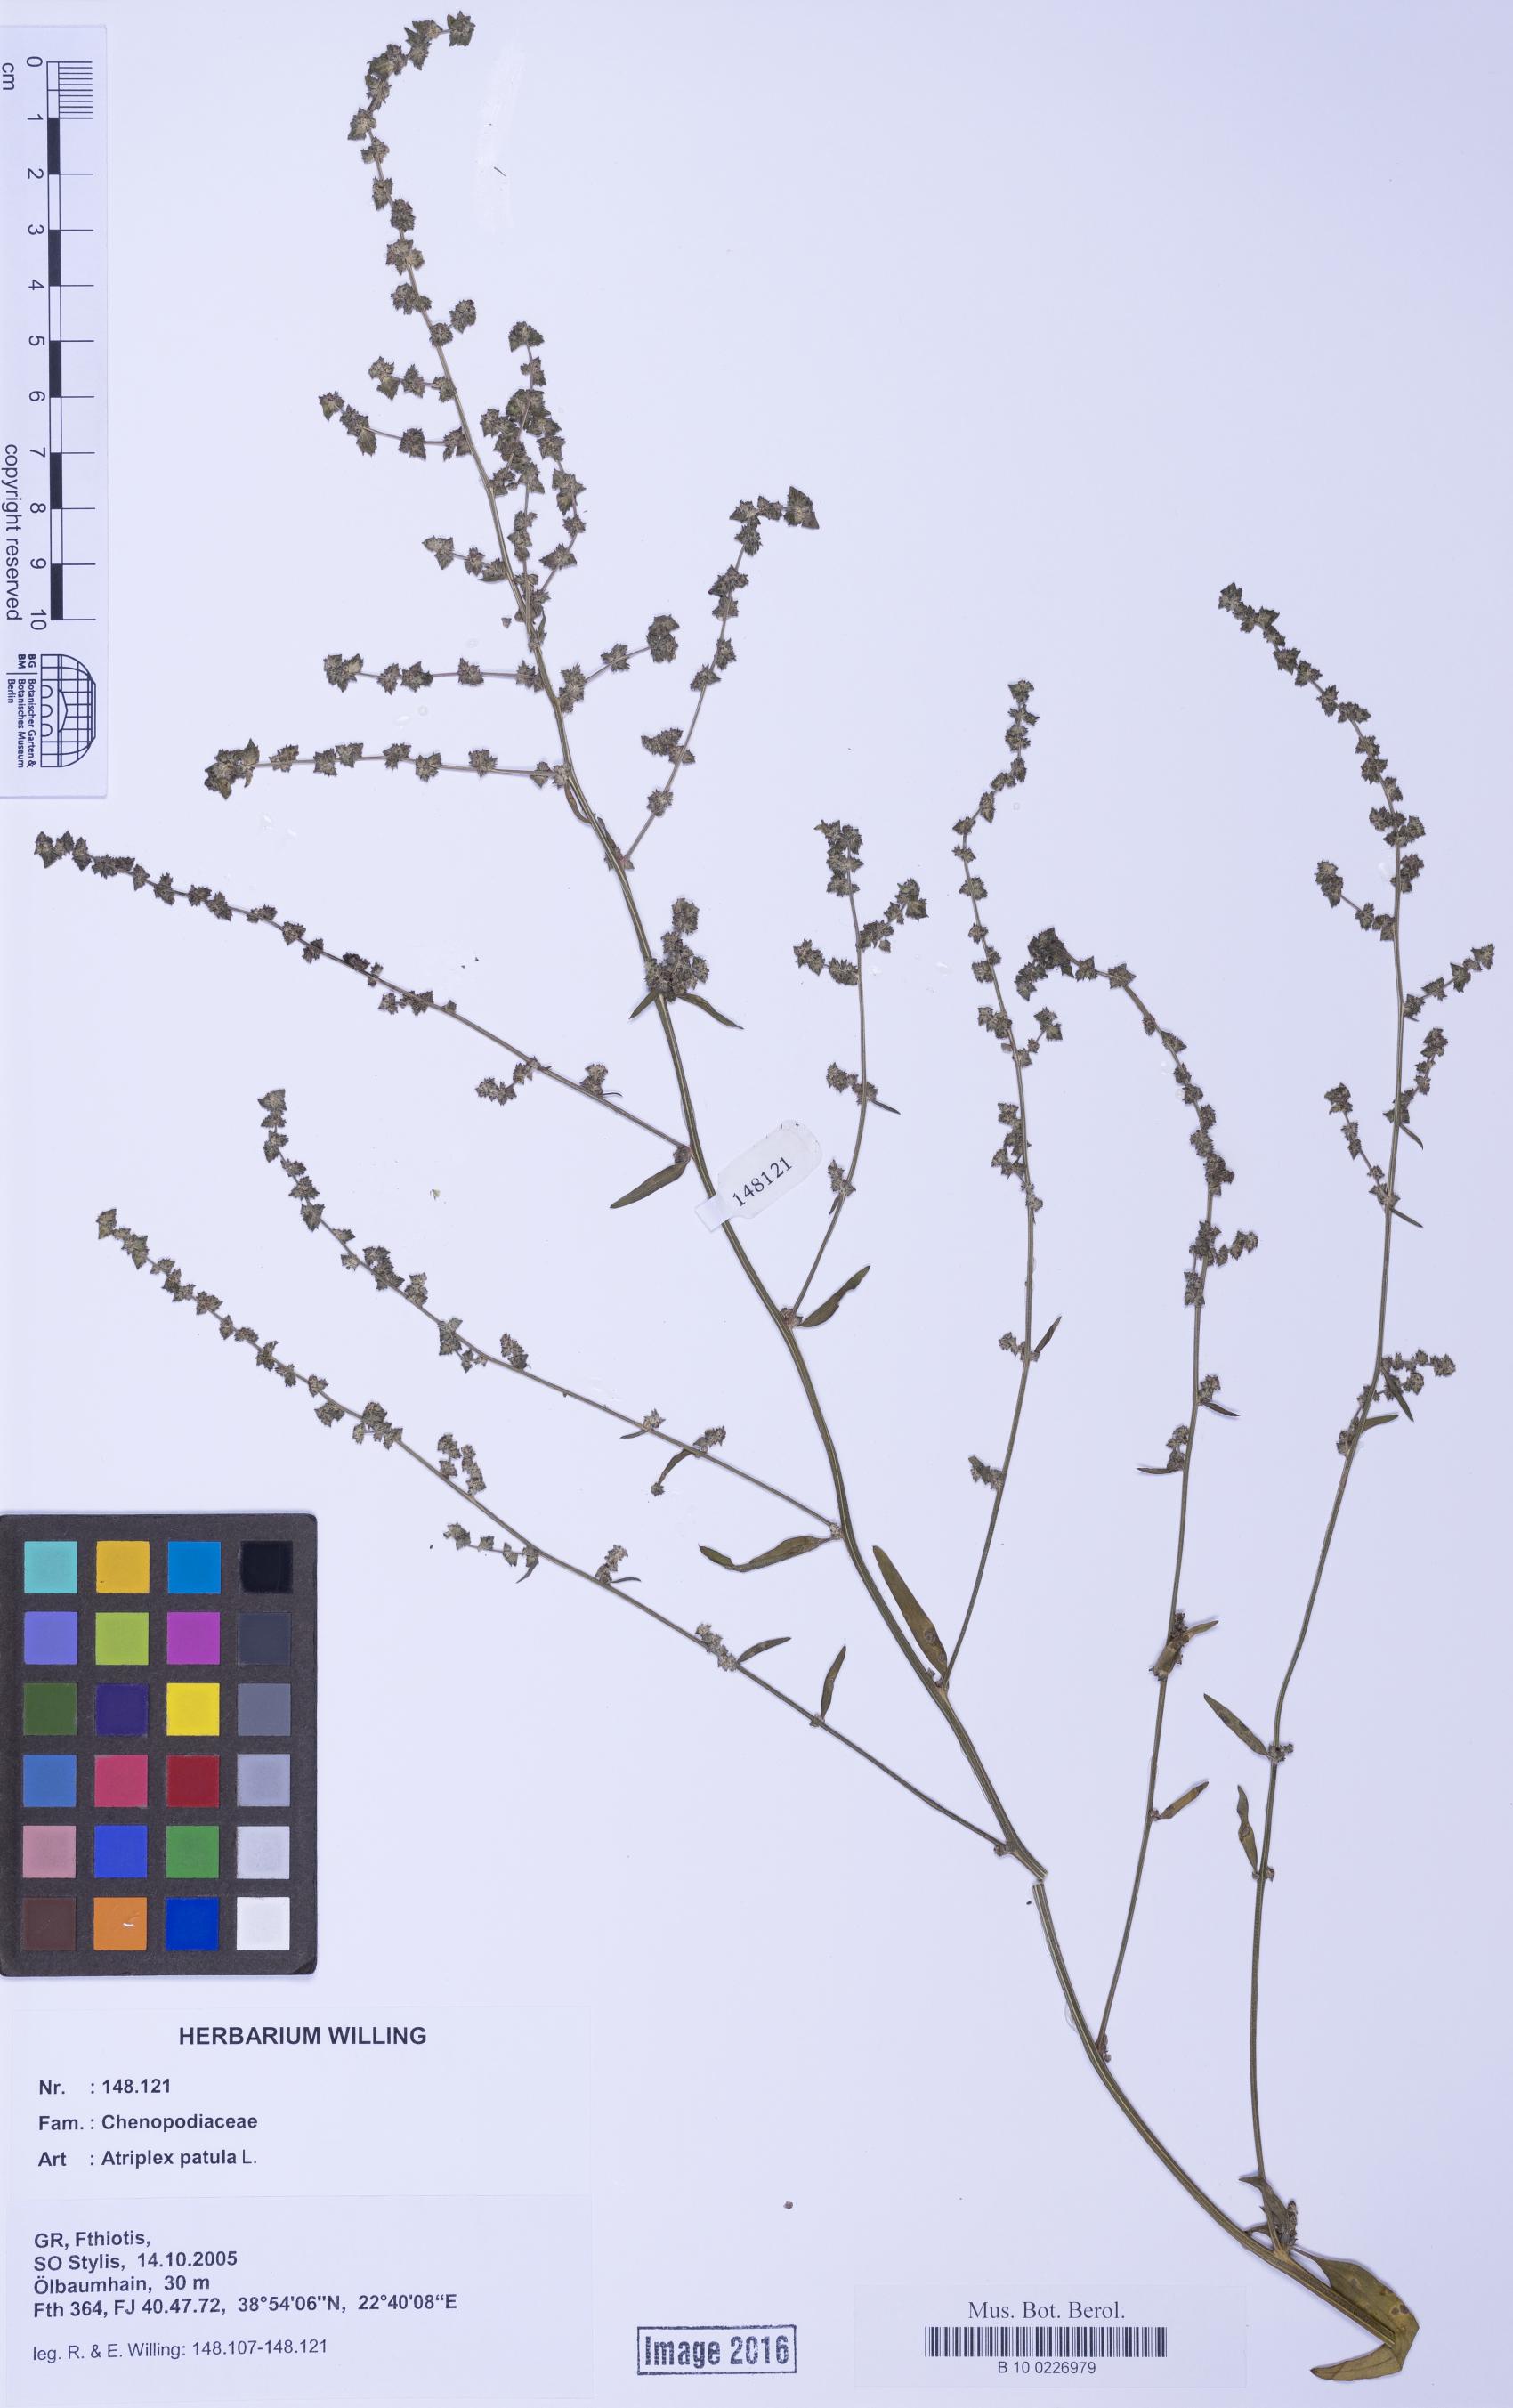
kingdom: Plantae
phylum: Tracheophyta
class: Magnoliopsida
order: Caryophyllales
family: Amaranthaceae
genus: Atriplex
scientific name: Atriplex patula
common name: Common orache
